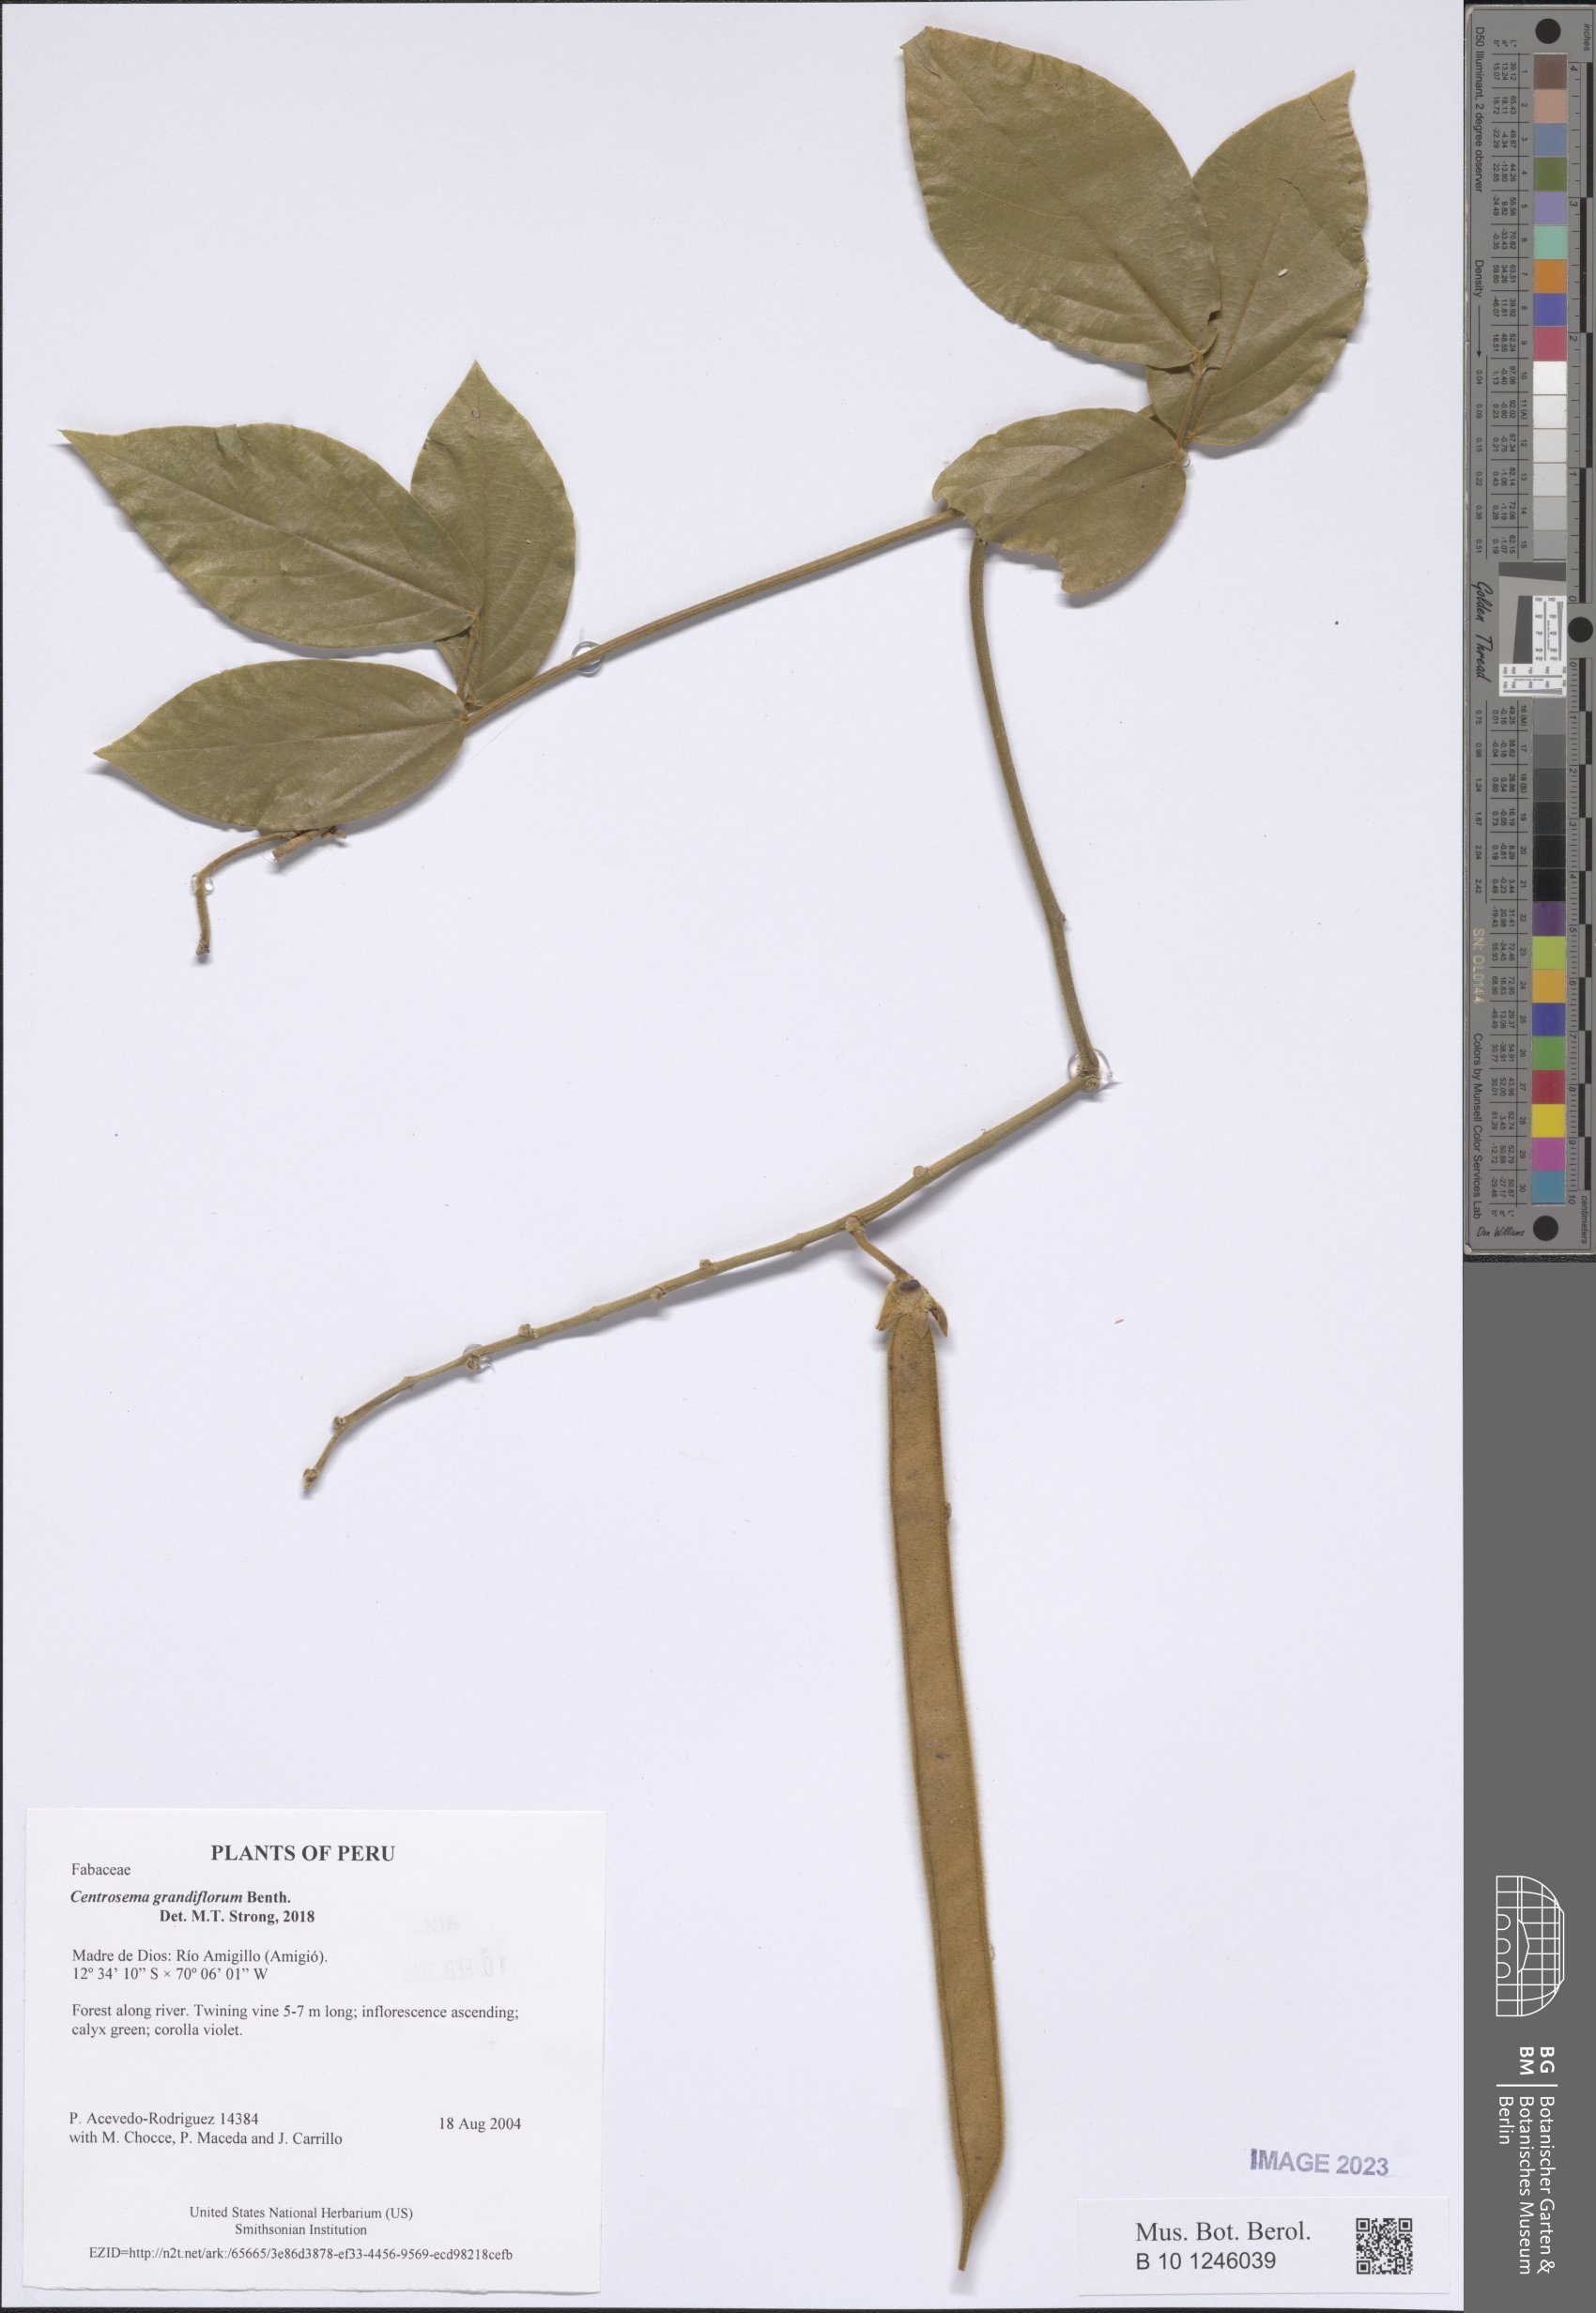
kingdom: Plantae
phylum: Tracheophyta
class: Magnoliopsida
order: Fabales
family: Fabaceae
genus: Centrosema
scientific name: Centrosema grandiflorum
